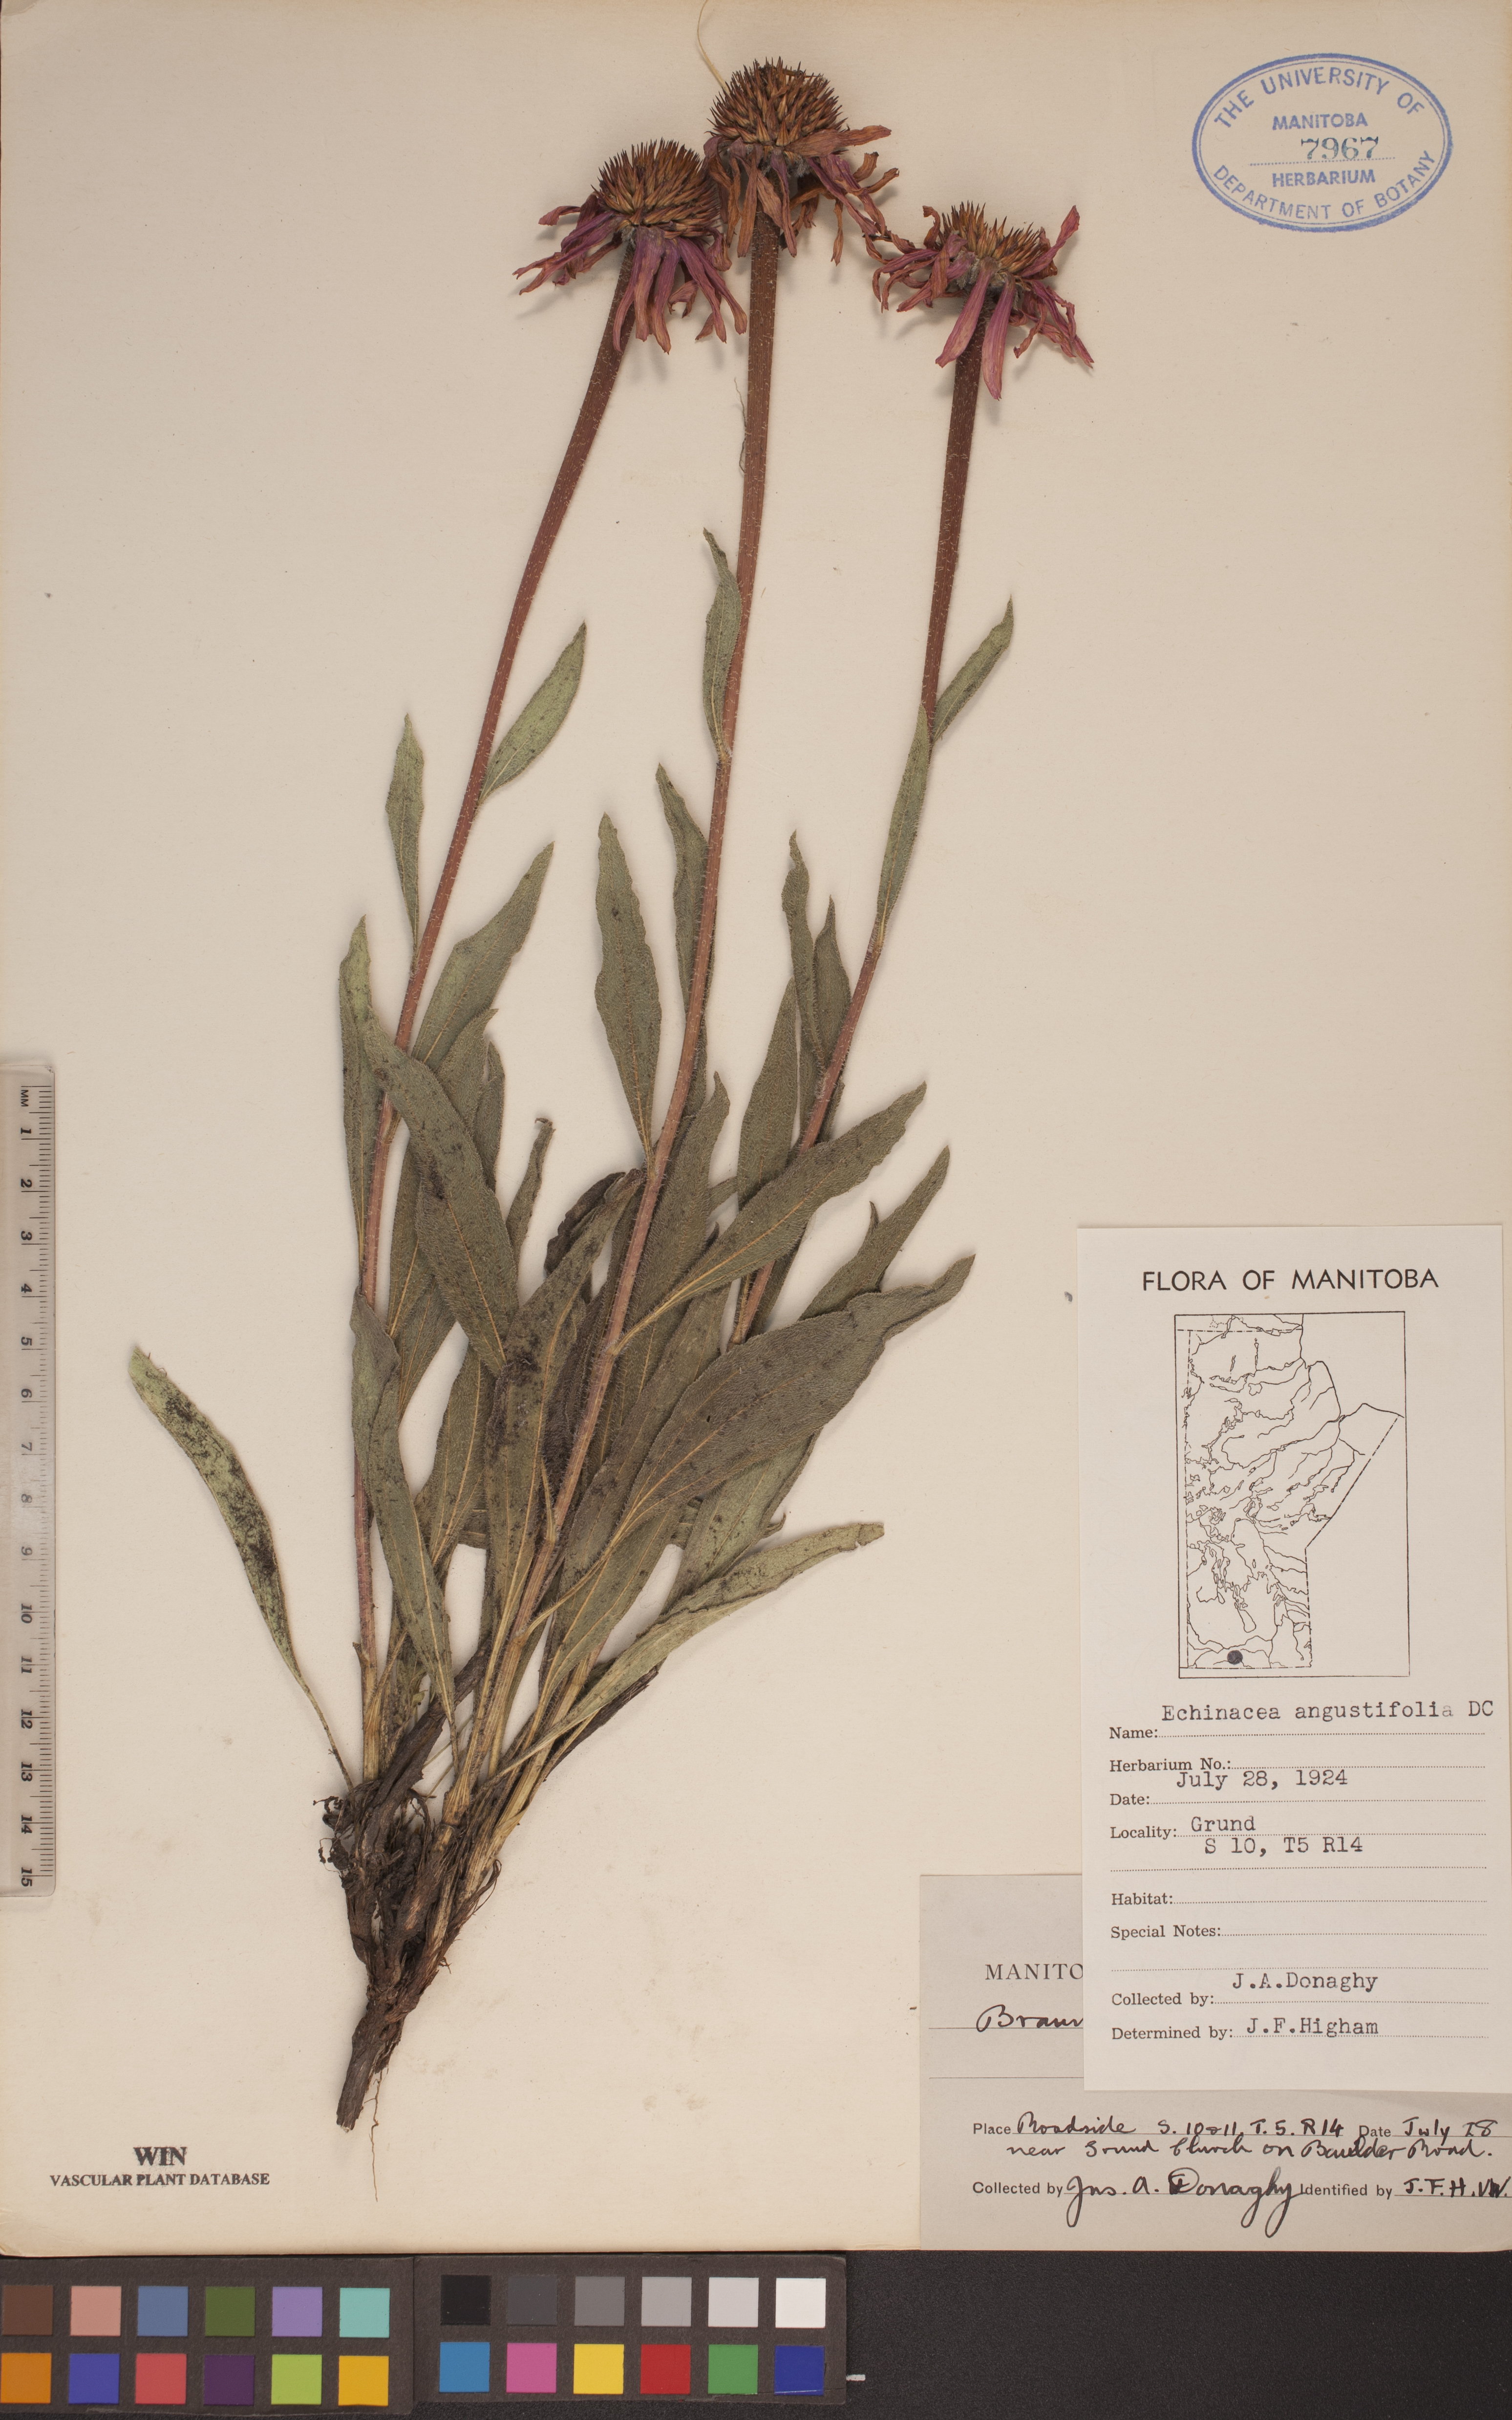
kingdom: Plantae
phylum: Tracheophyta
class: Magnoliopsida
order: Asterales
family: Asteraceae
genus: Echinacea
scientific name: Echinacea angustifolia
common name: Black-sampson echinacea
